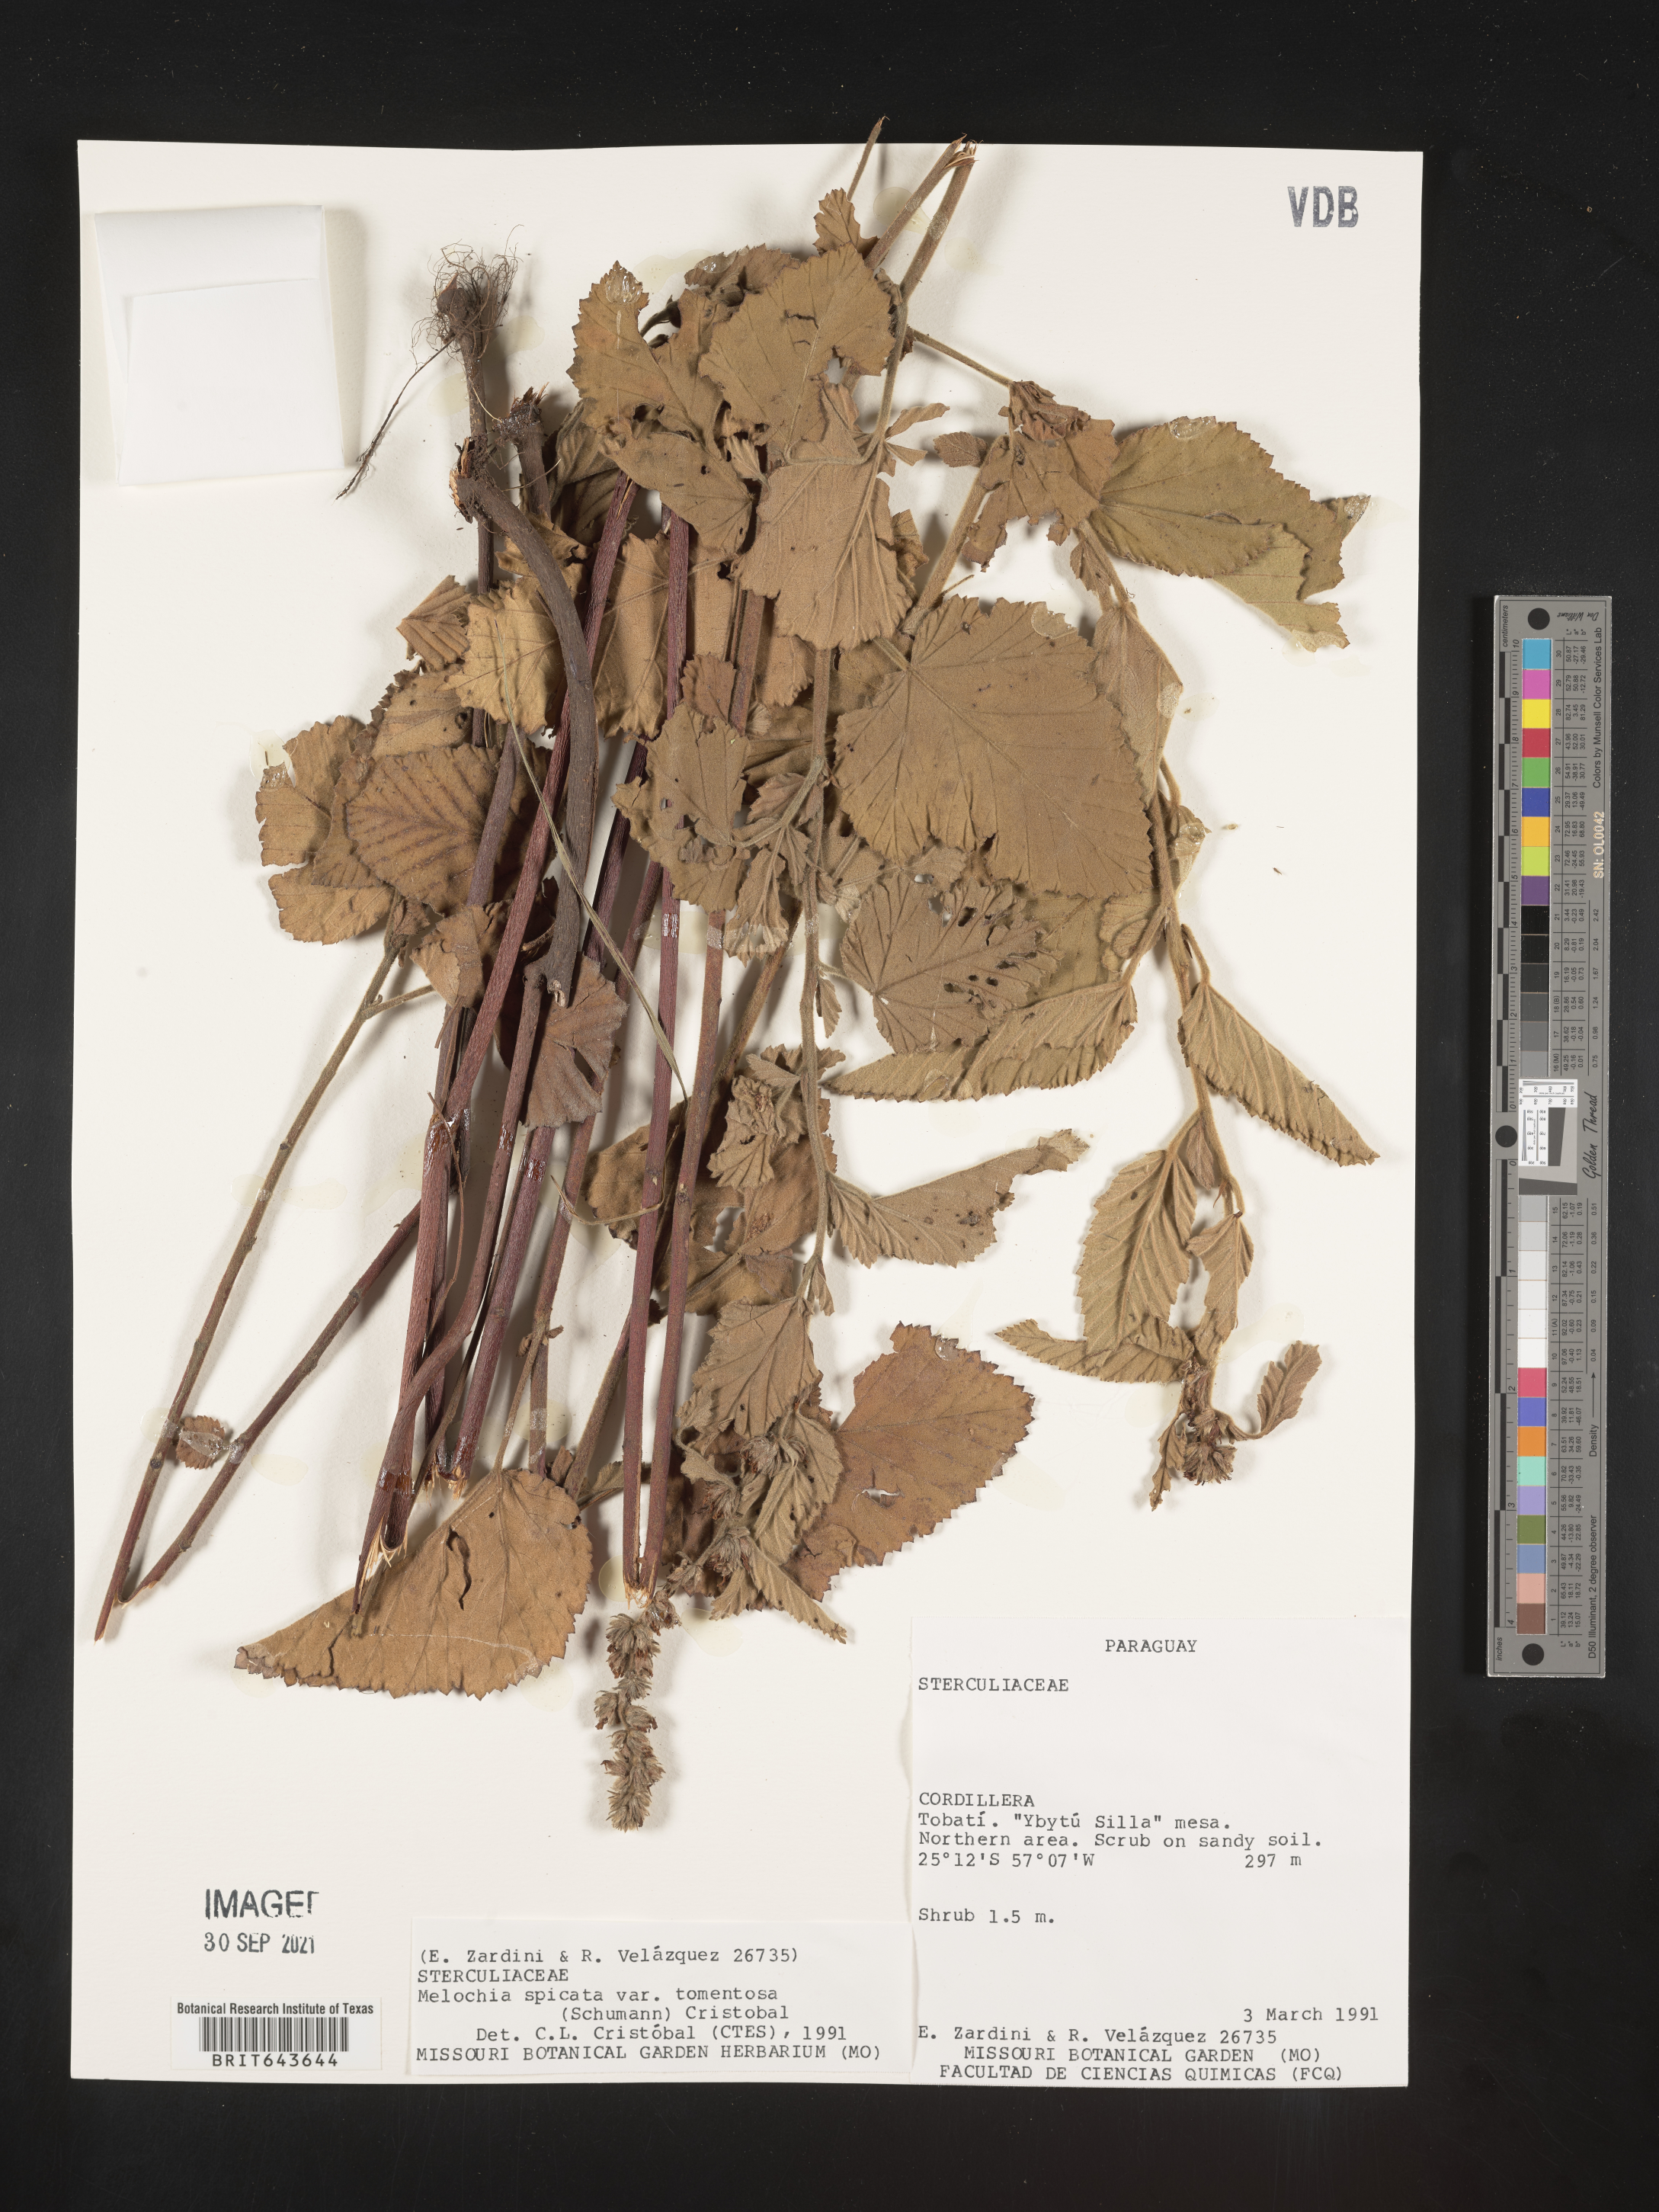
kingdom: Plantae
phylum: Tracheophyta
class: Magnoliopsida
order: Malvales
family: Malvaceae
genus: Melochia
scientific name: Melochia
